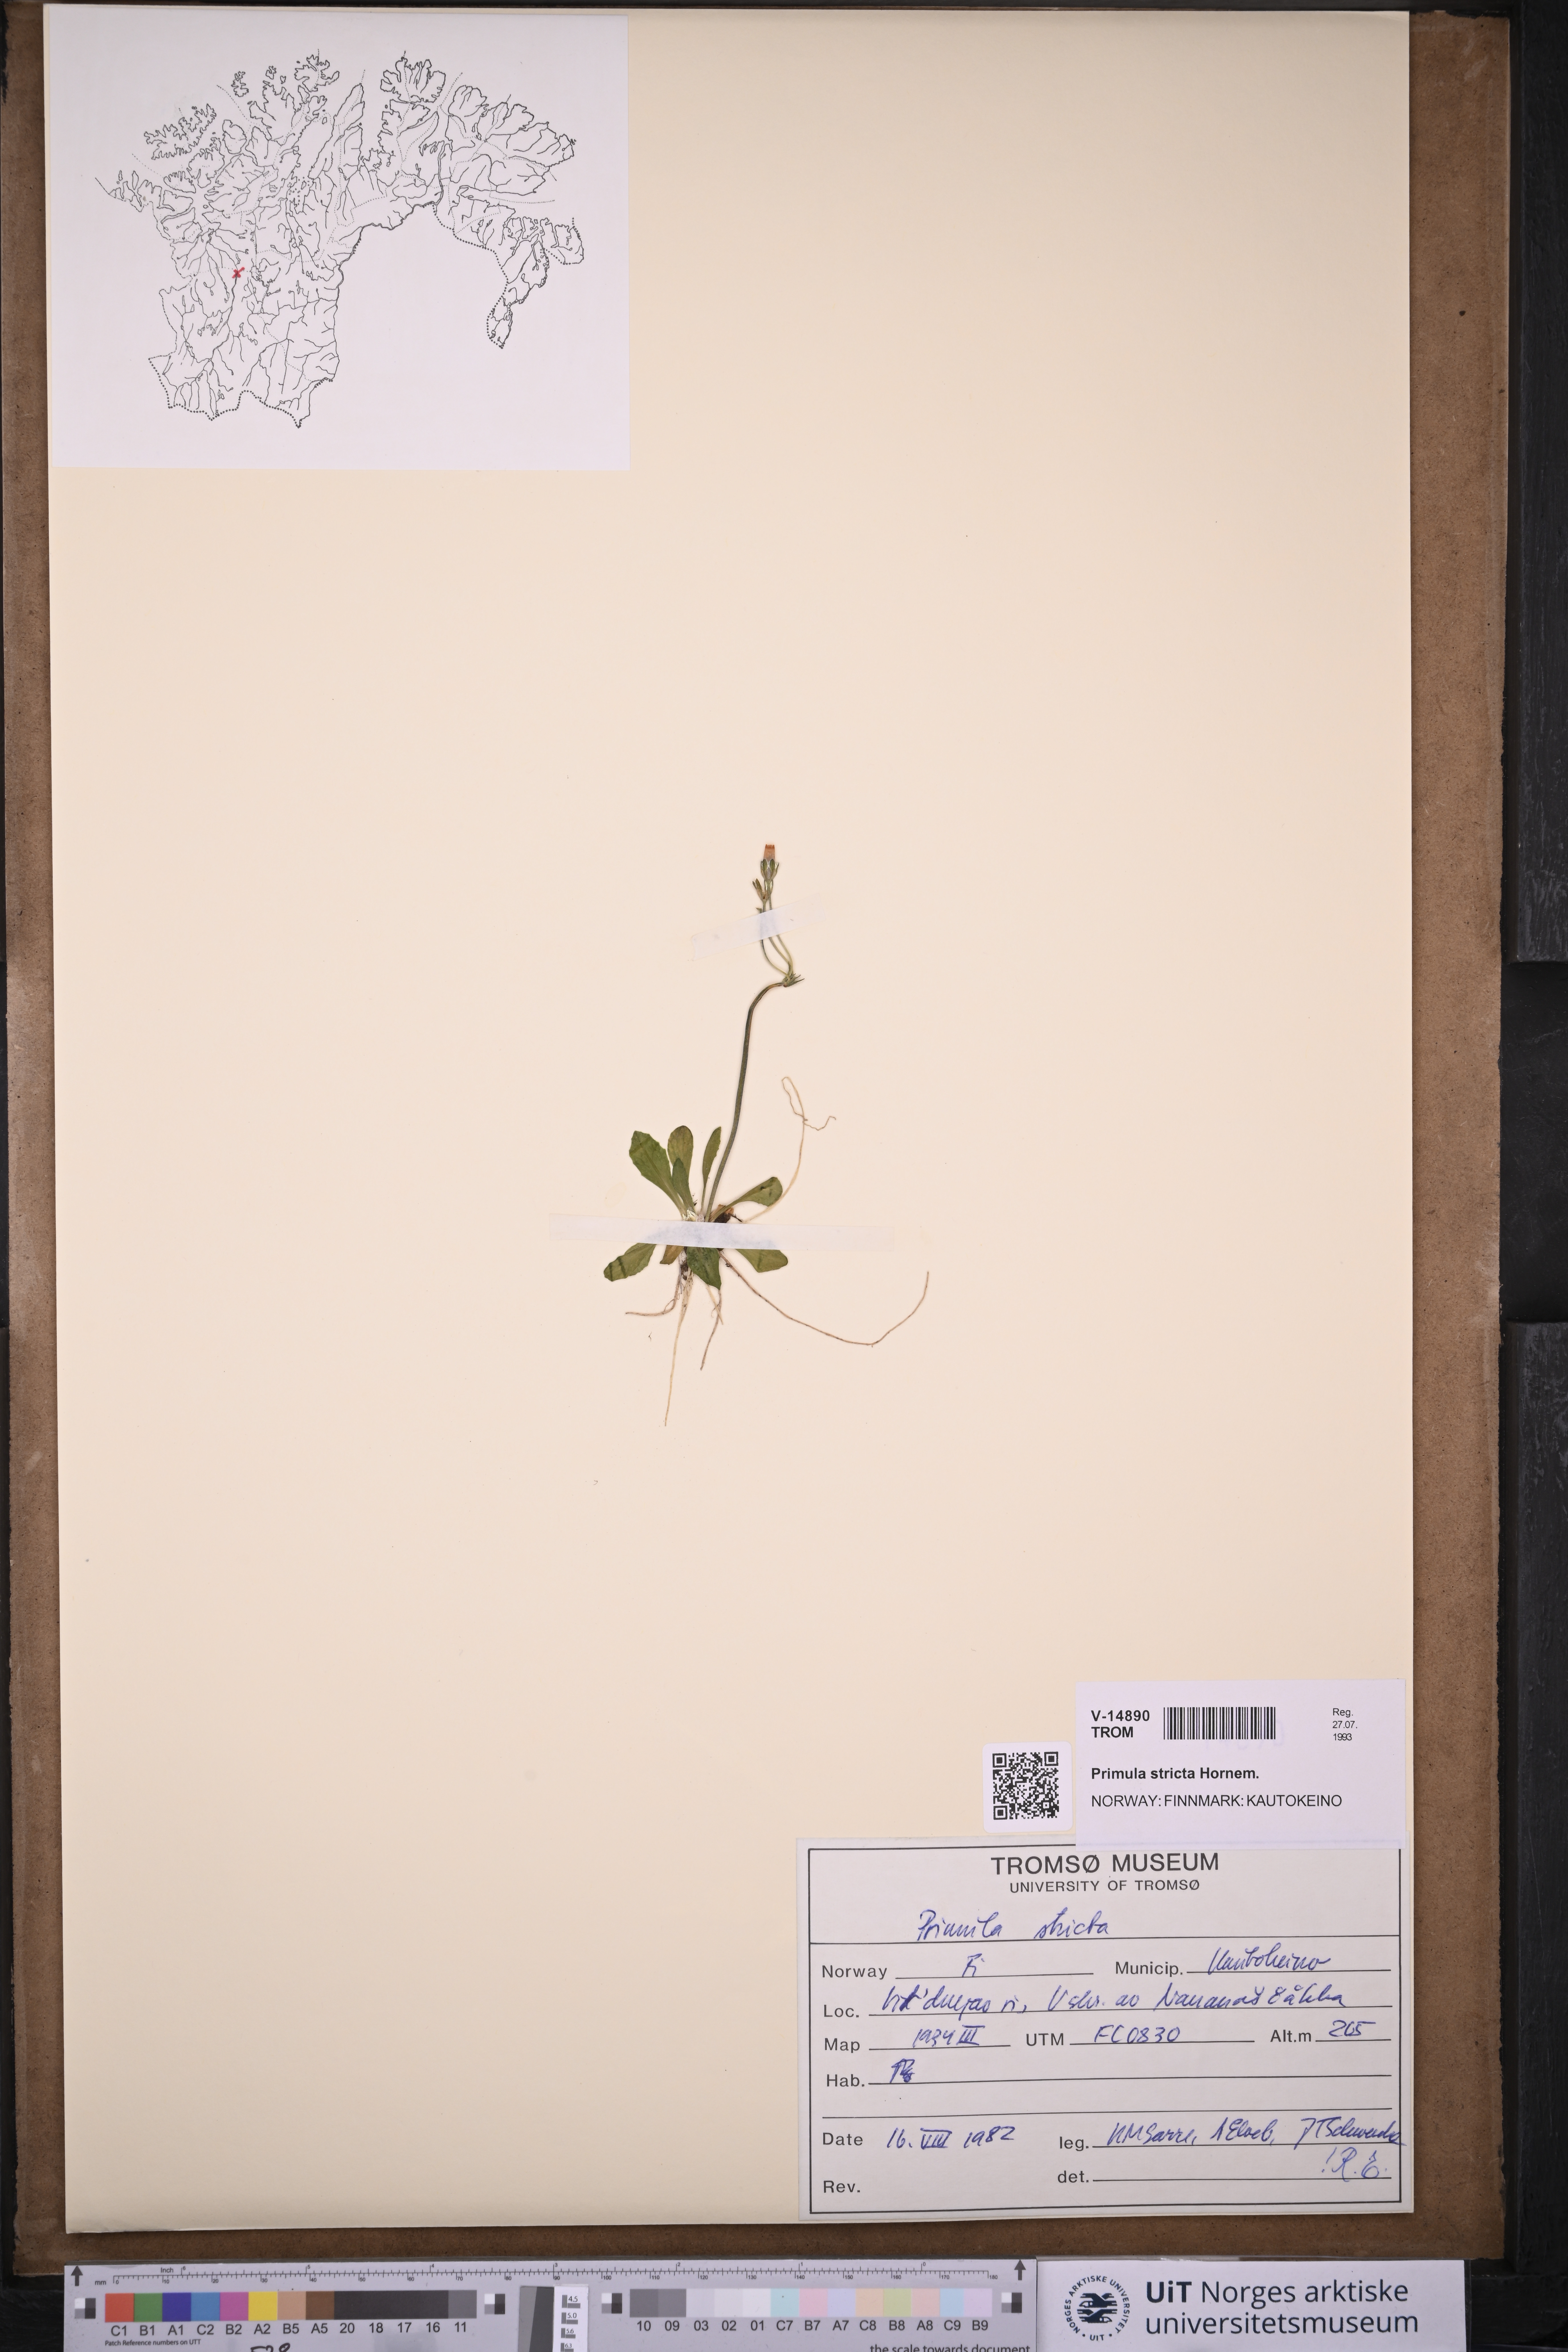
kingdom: Plantae
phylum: Tracheophyta
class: Magnoliopsida
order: Ericales
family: Primulaceae
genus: Primula
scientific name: Primula stricta
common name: Coastal primrose
